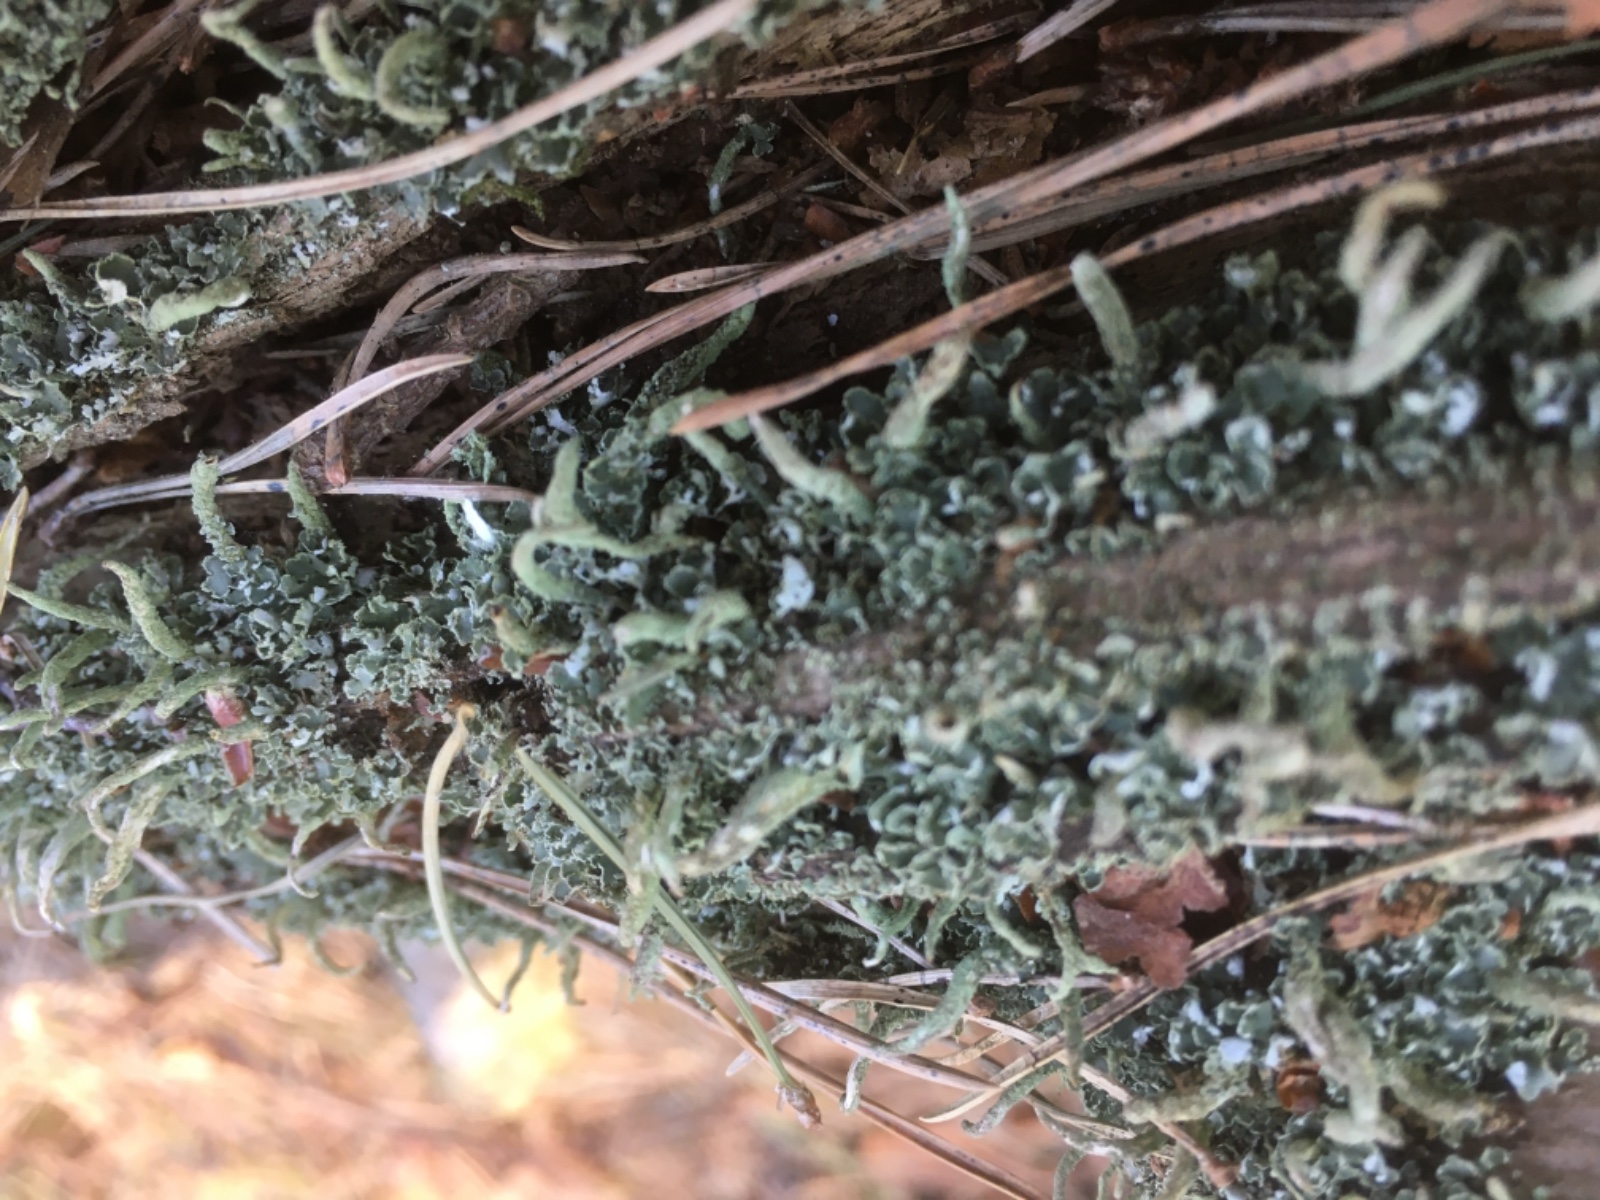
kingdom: Fungi
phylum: Ascomycota
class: Lecanoromycetes
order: Lecanorales
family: Cladoniaceae
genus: Cladonia
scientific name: Cladonia coniocraea
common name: træfods-bægerlav
